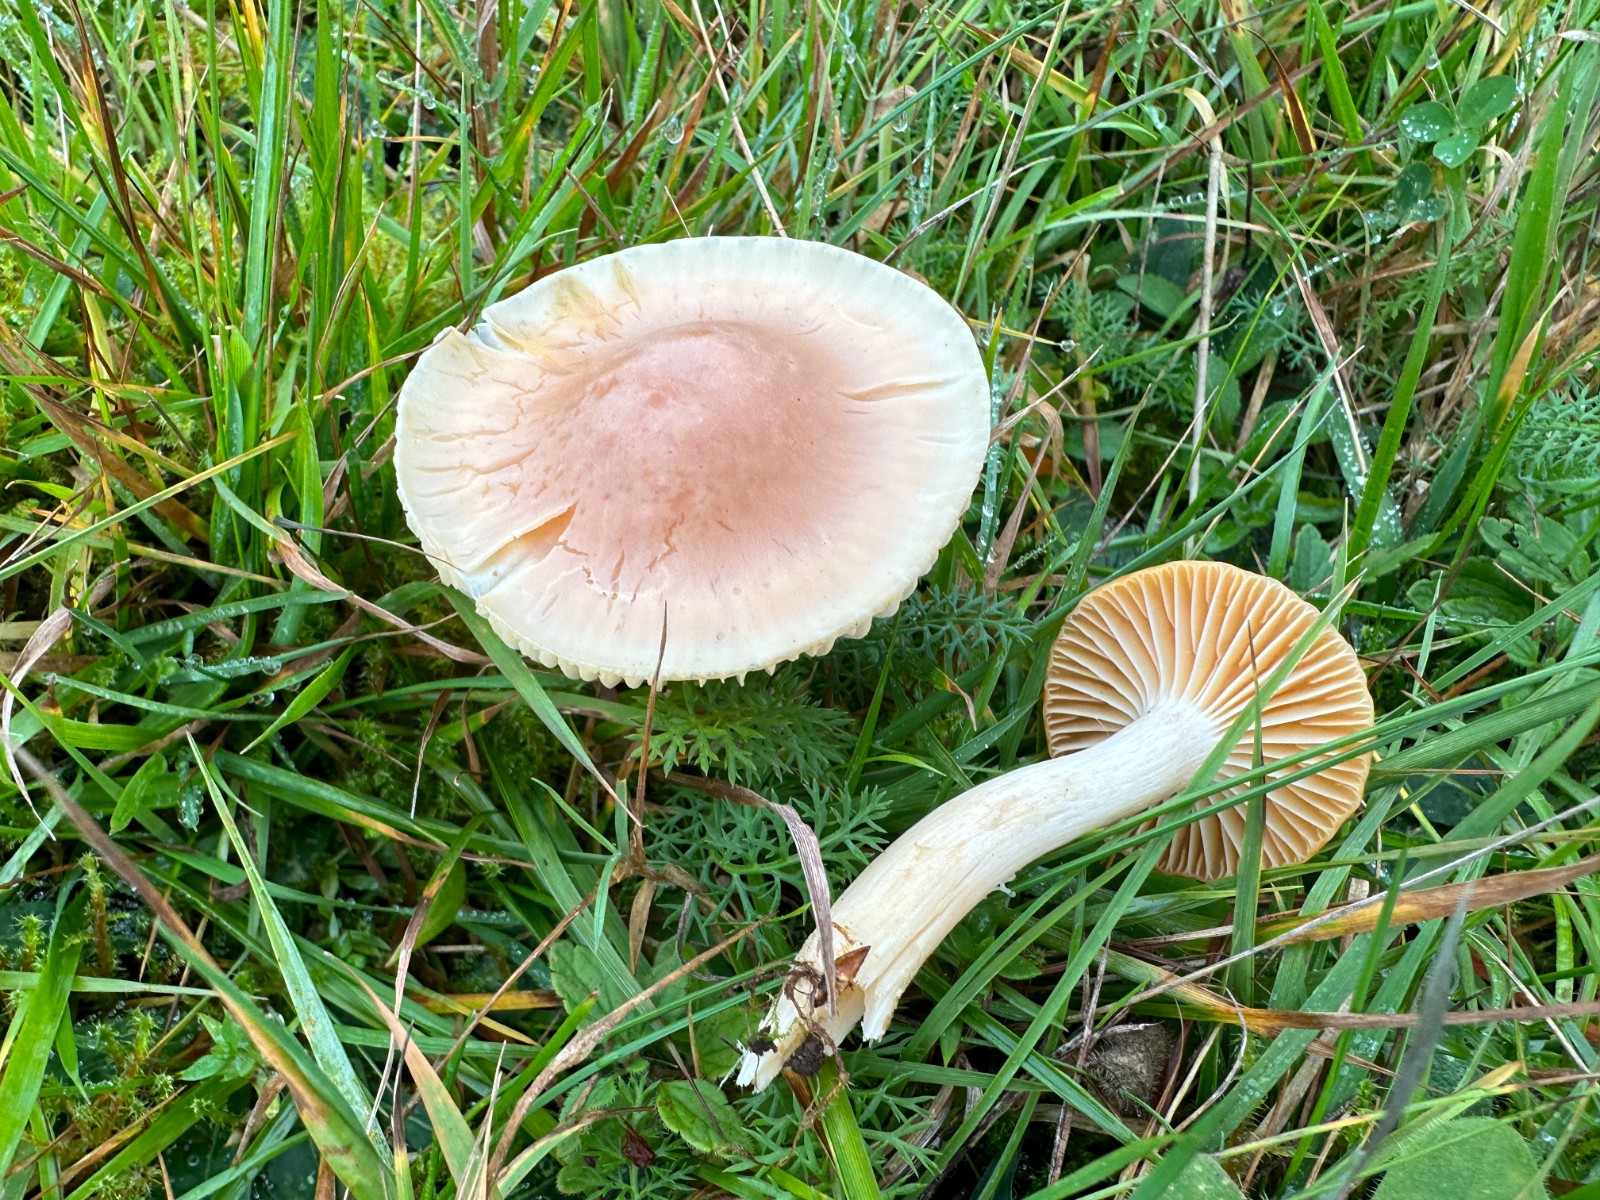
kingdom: Fungi
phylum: Basidiomycota
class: Agaricomycetes
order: Agaricales
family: Hygrophoraceae
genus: Cuphophyllus
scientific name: Cuphophyllus pratensis
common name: eng-vokshat
